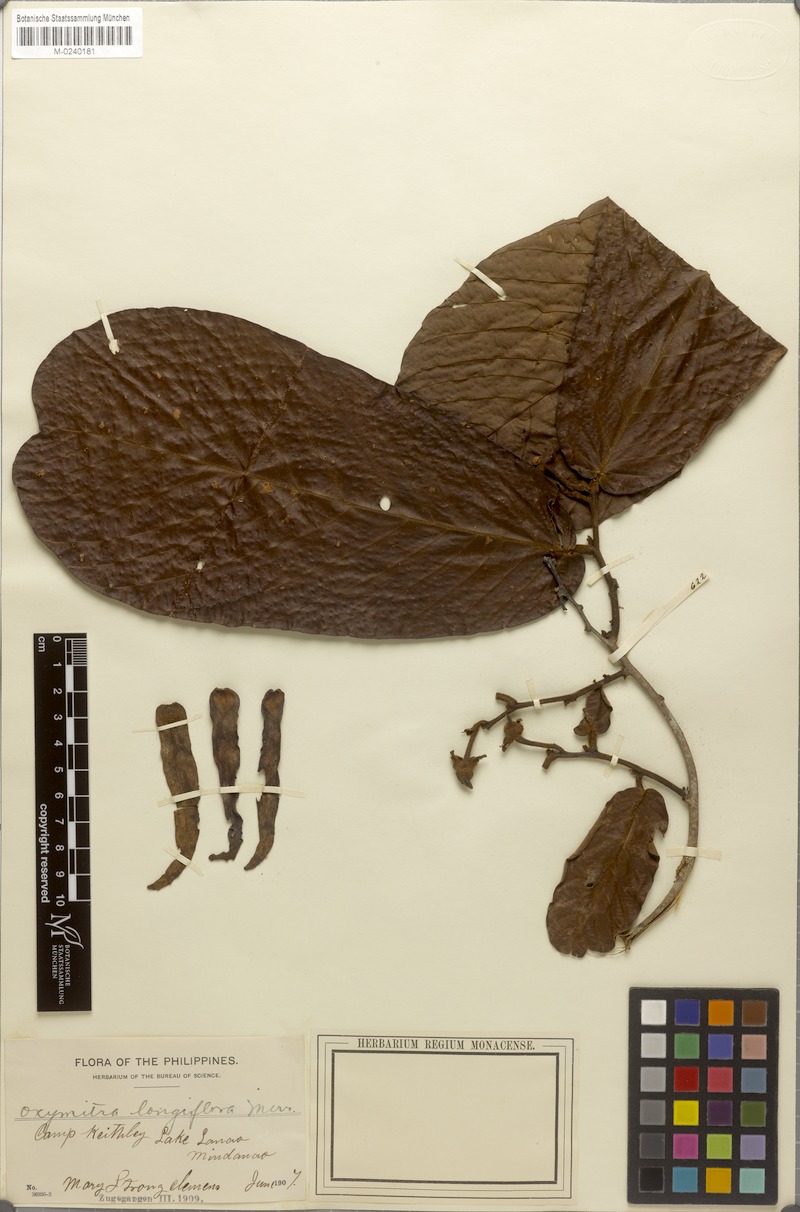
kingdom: Plantae
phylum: Tracheophyta
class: Magnoliopsida
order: Magnoliales
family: Annonaceae
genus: Friesodielsia
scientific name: Friesodielsia longiflora
